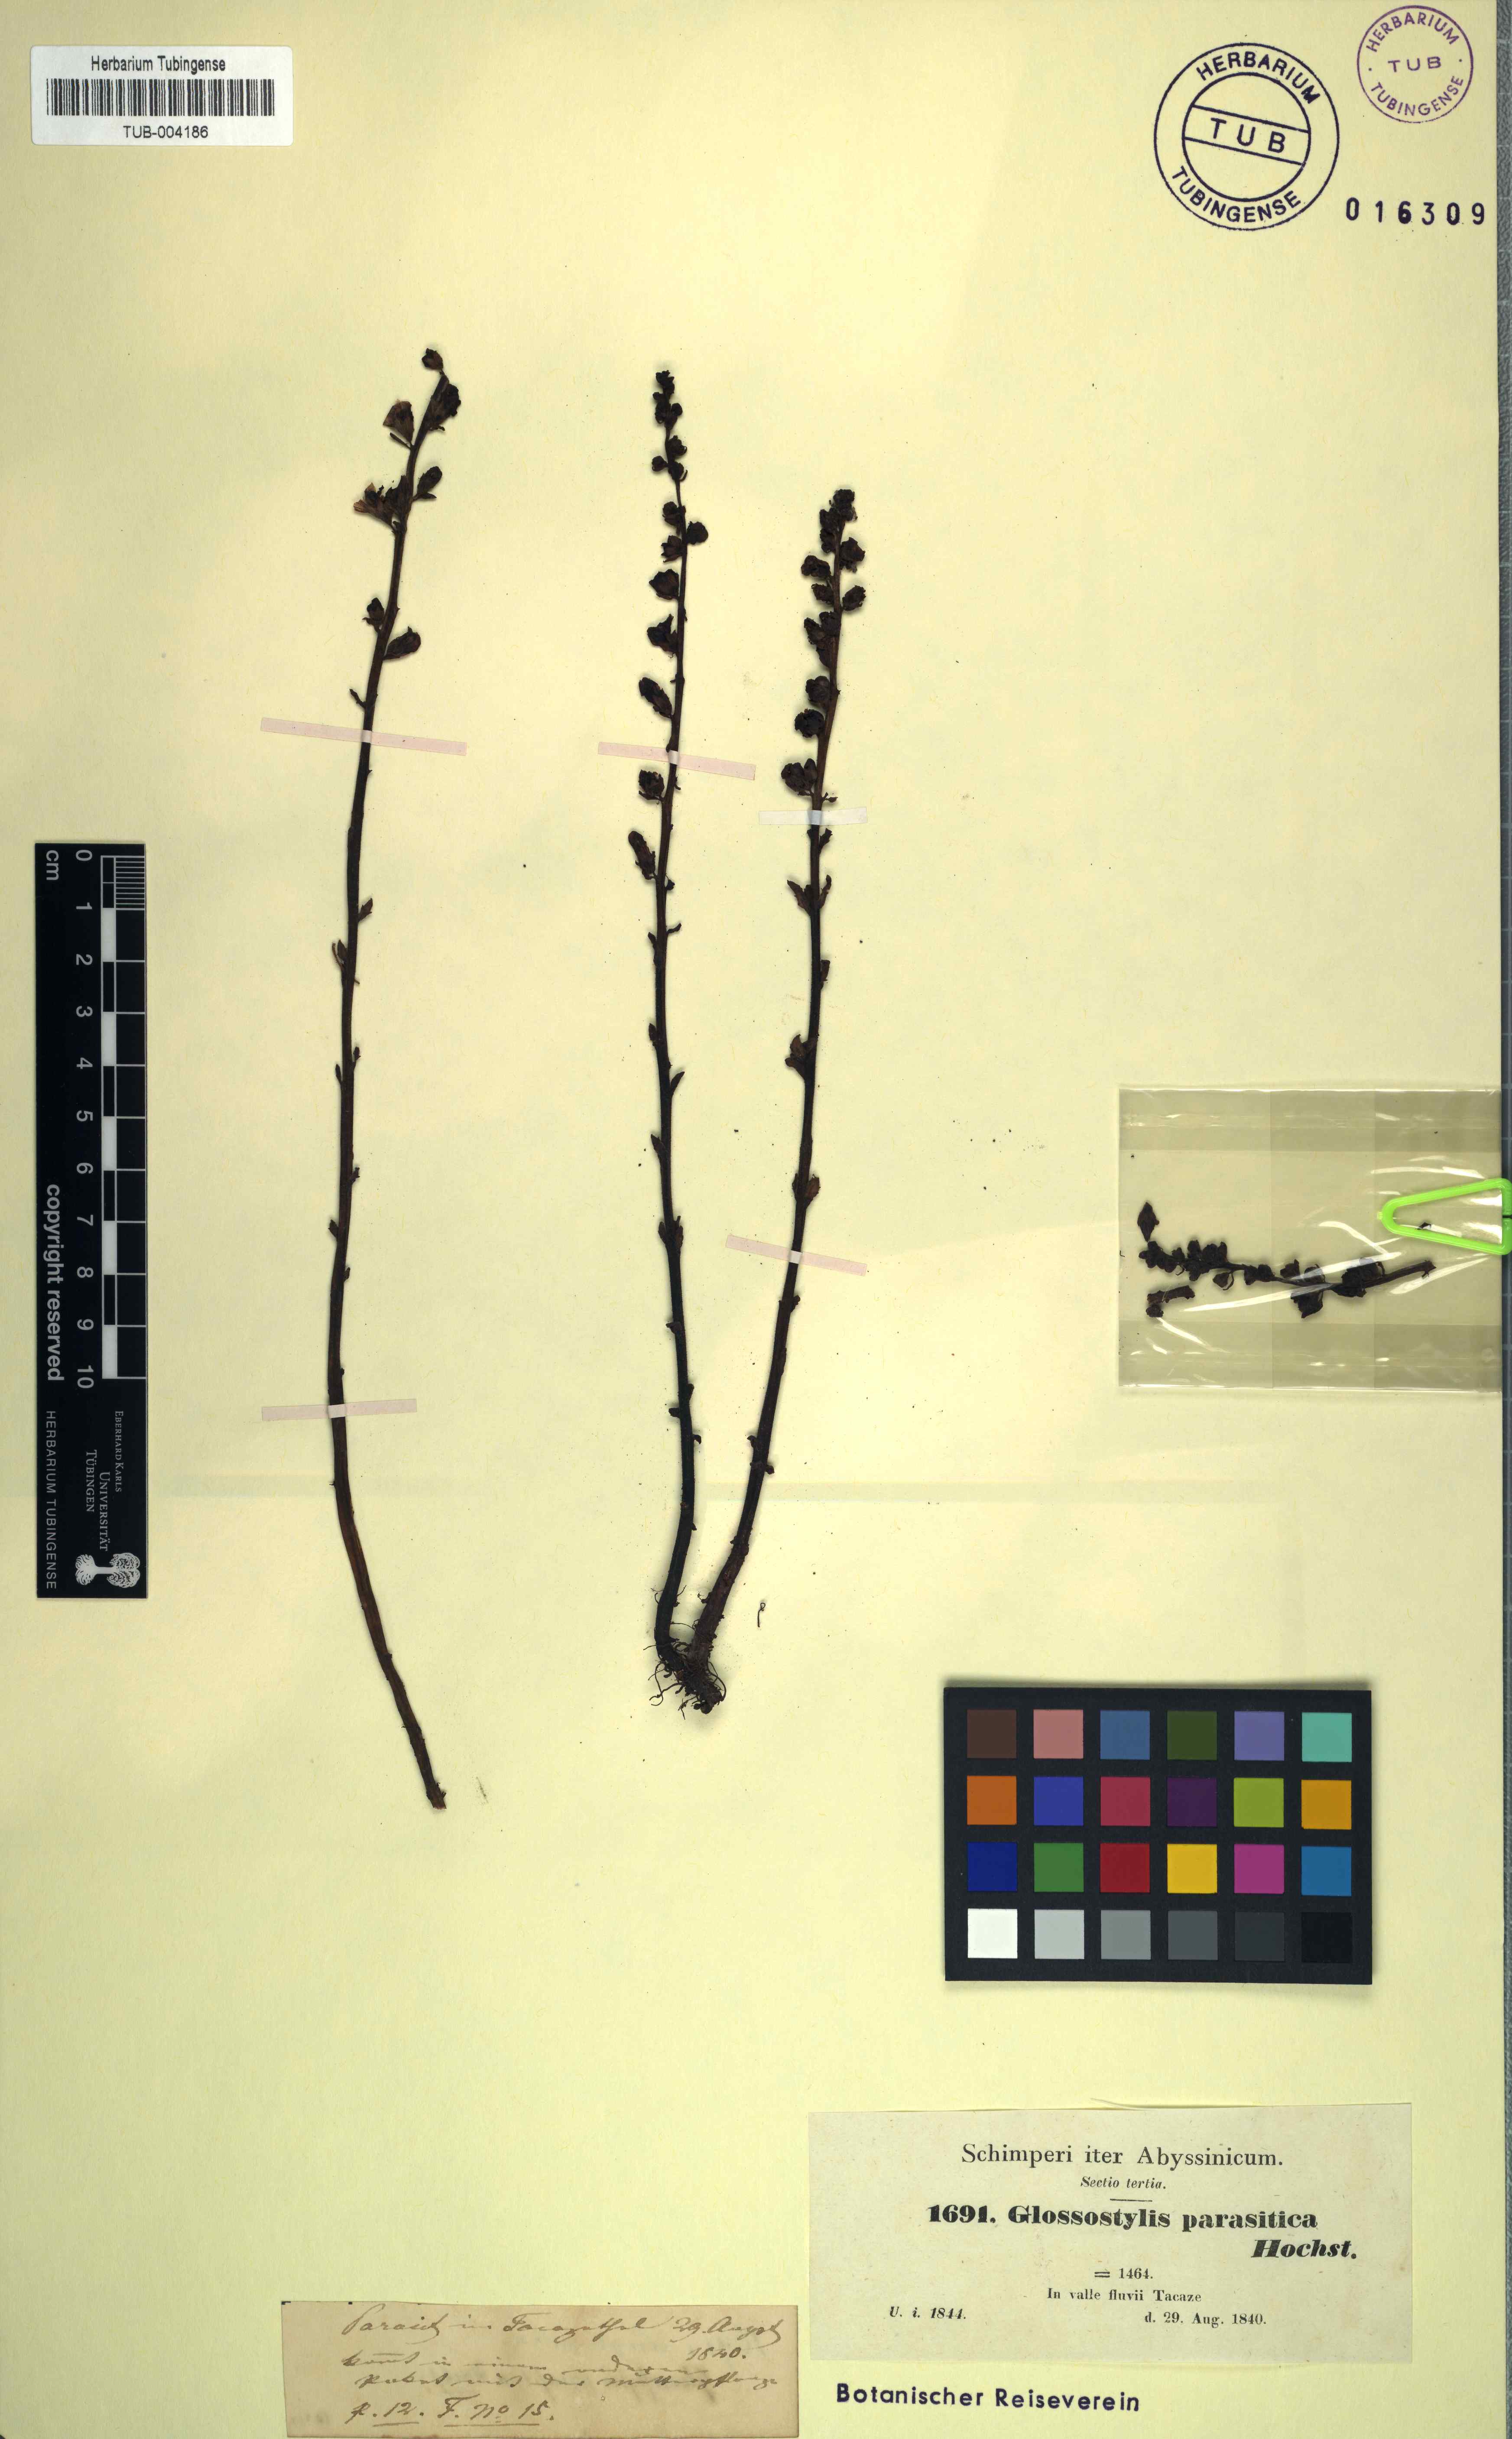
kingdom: Plantae
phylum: Tracheophyta
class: Magnoliopsida
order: Lamiales
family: Orobanchaceae
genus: Alectra
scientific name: Alectra parasitica
